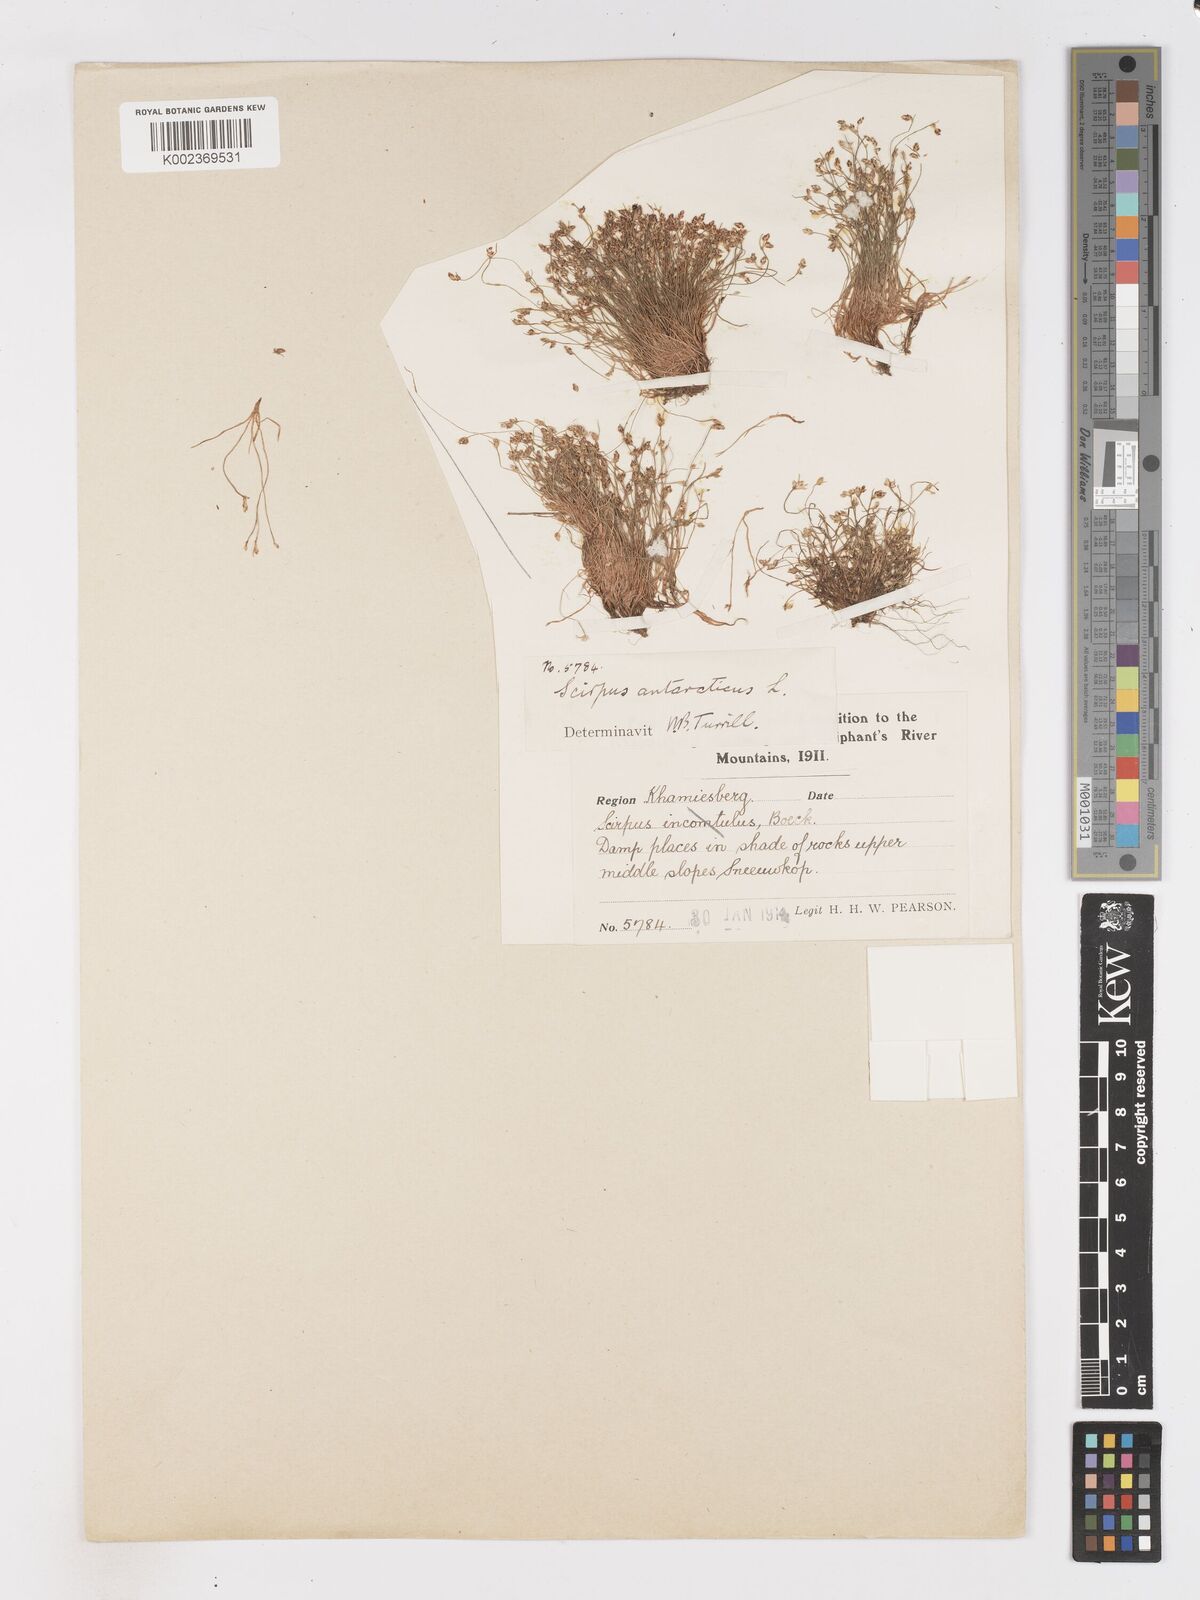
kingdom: Plantae
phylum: Tracheophyta
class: Liliopsida
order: Poales
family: Cyperaceae
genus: Isolepis
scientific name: Isolepis antarctica
